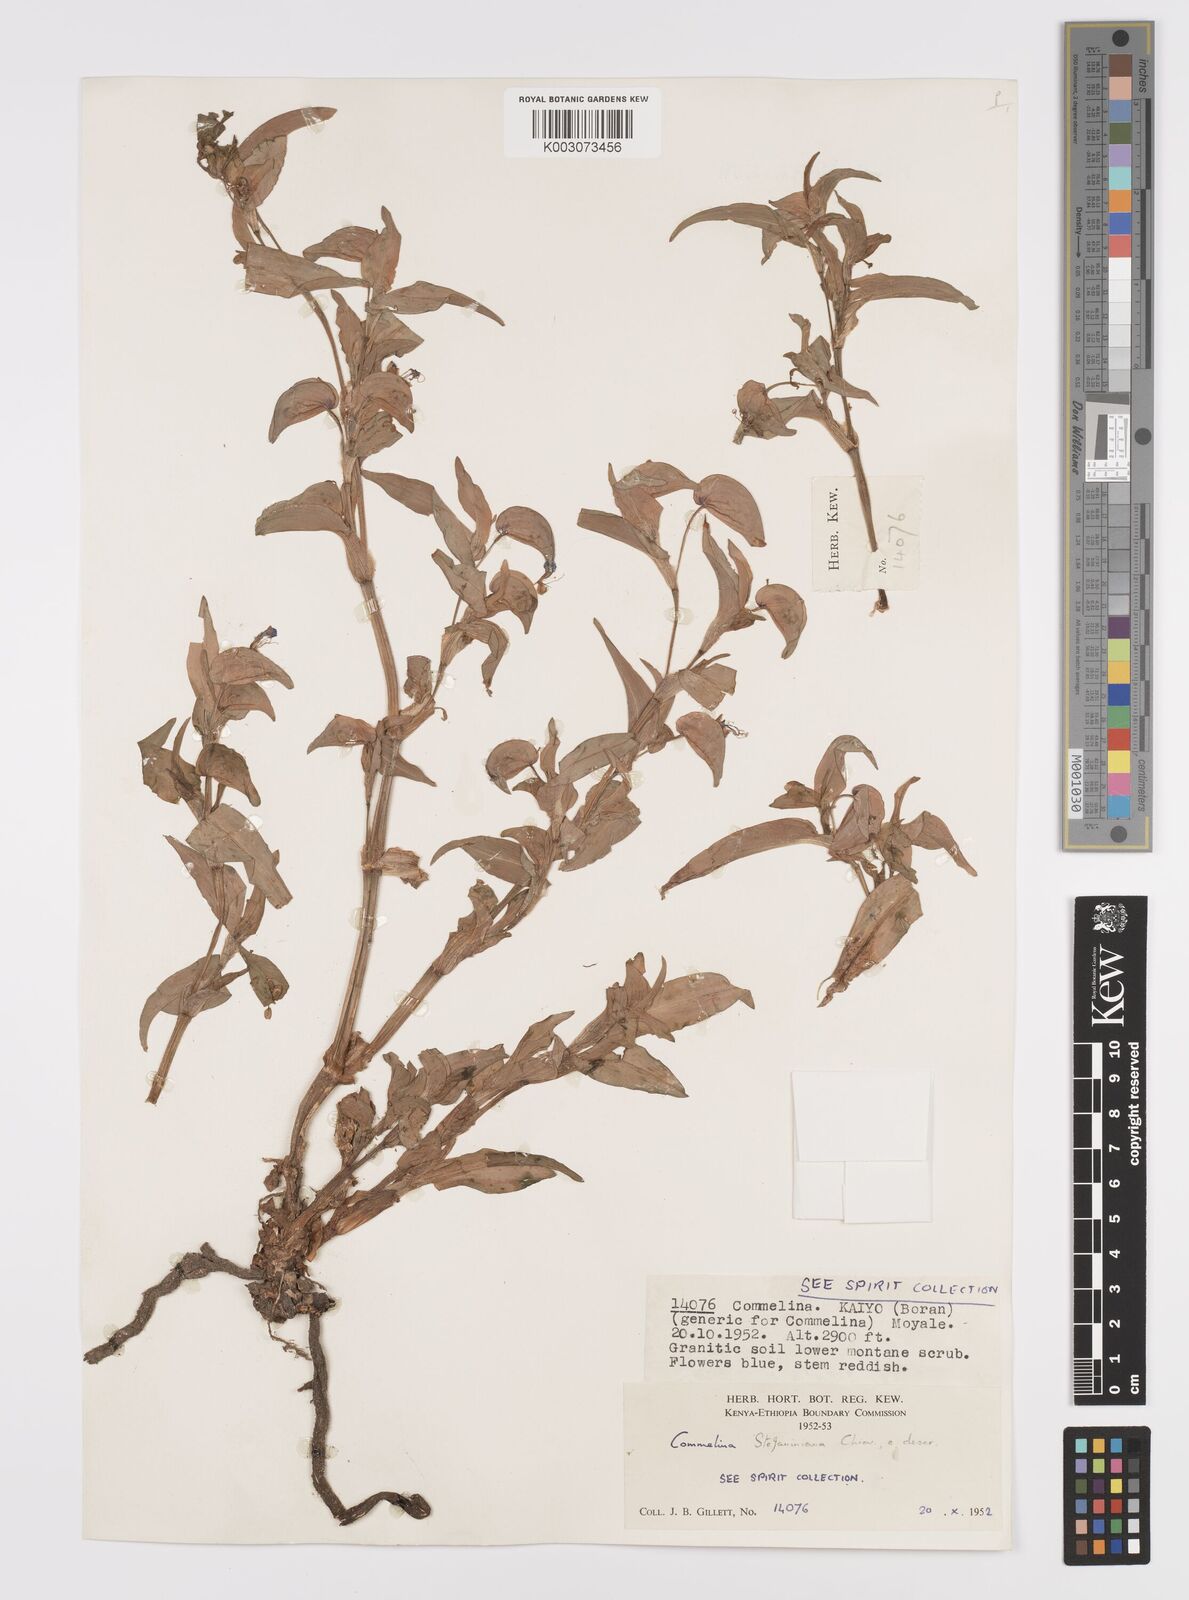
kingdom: Plantae
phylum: Tracheophyta
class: Liliopsida
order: Commelinales
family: Commelinaceae
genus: Commelina
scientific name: Commelina stefaniniana
